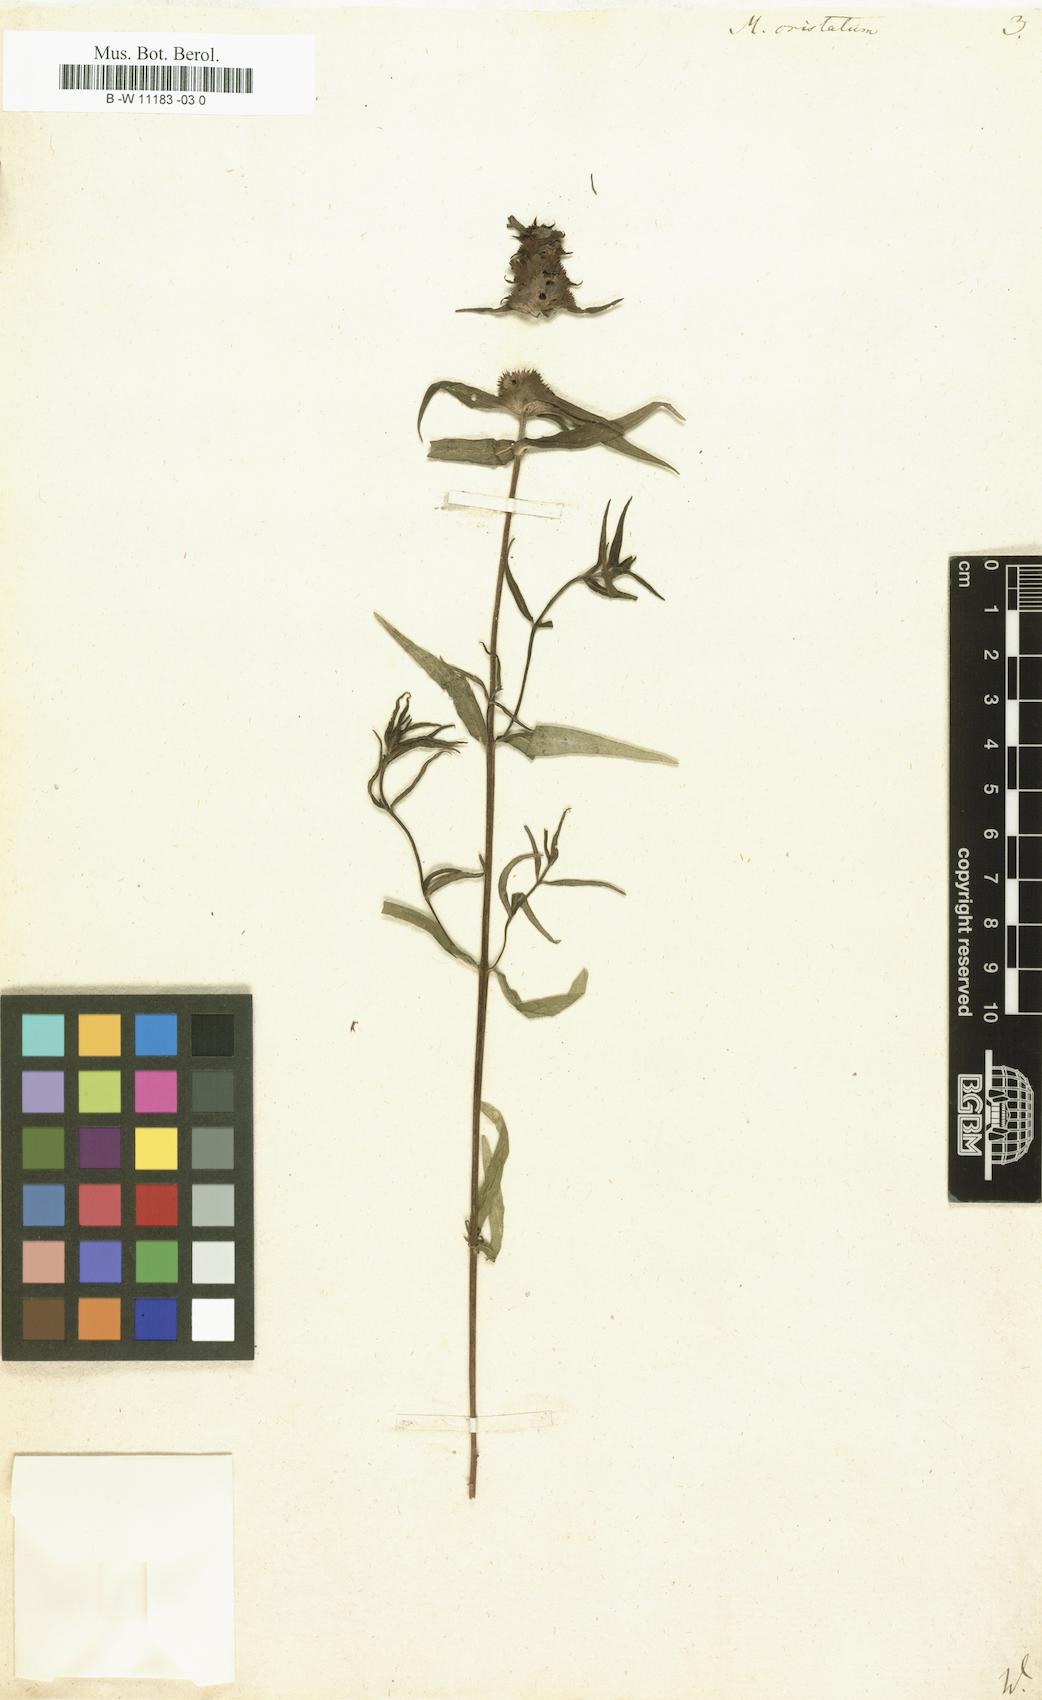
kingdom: Plantae
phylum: Tracheophyta
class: Magnoliopsida
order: Lamiales
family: Orobanchaceae
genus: Melampyrum
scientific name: Melampyrum cristatum
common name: Crested cow-wheat
